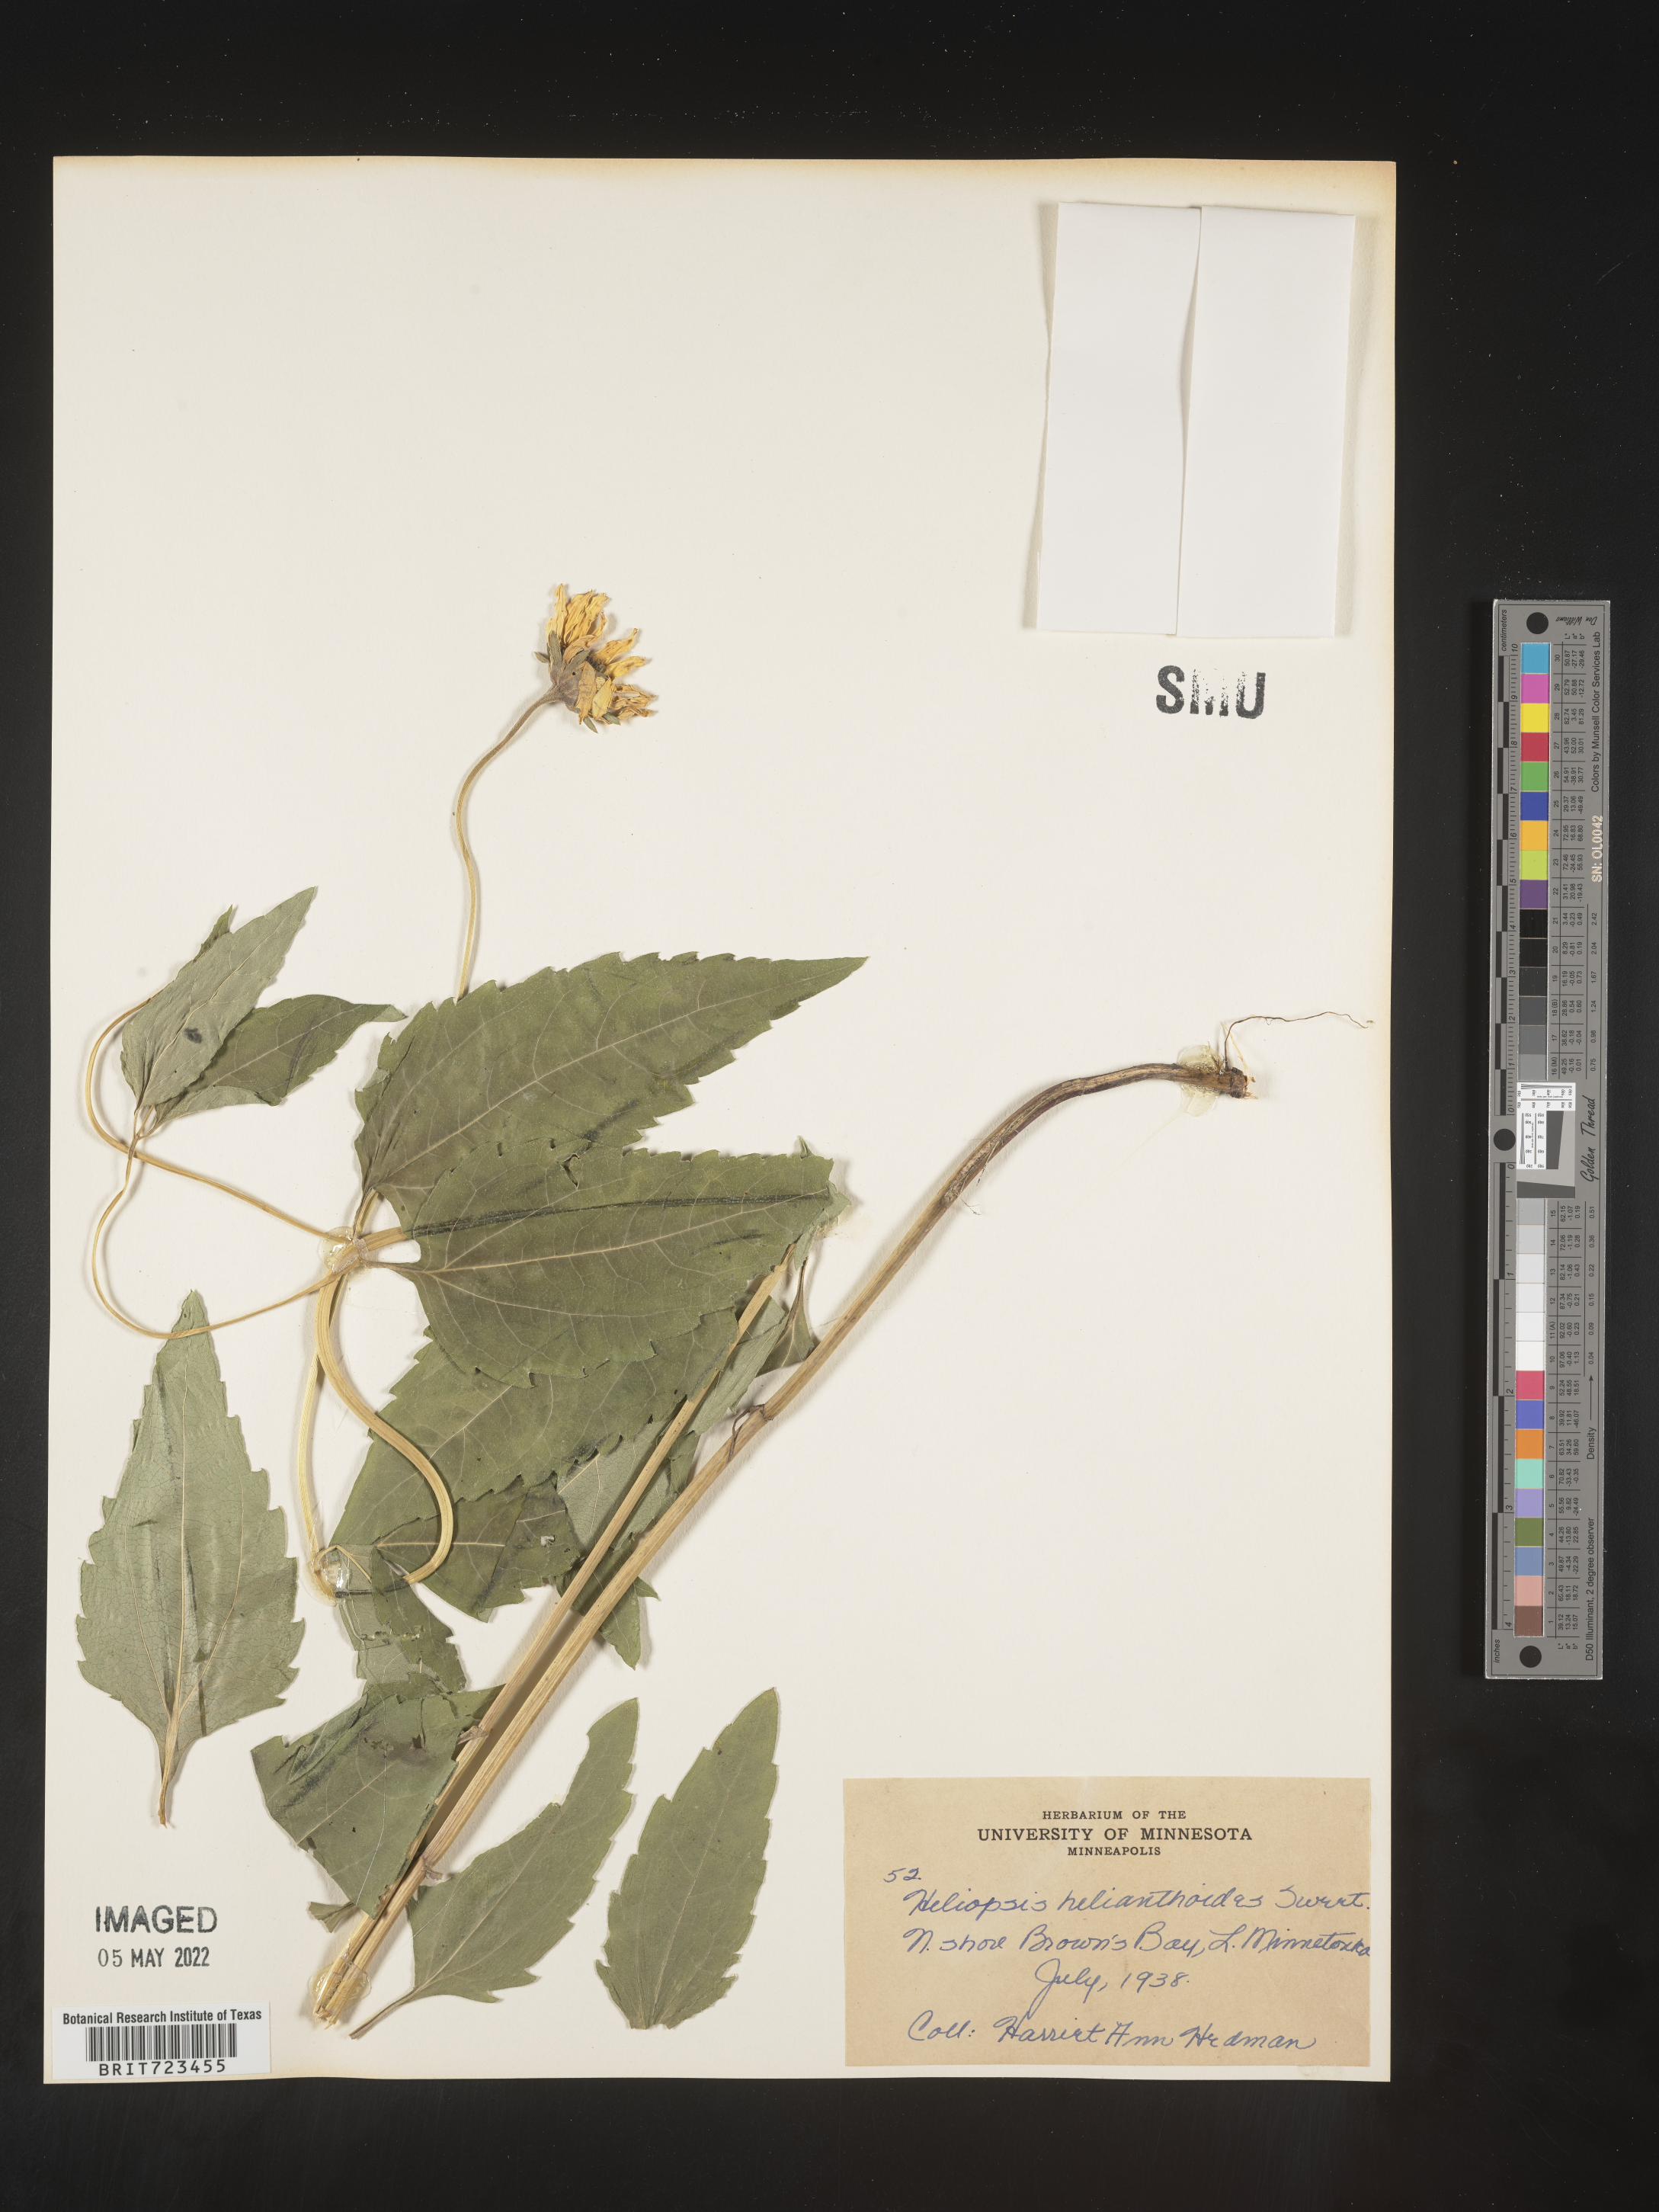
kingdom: Plantae
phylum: Tracheophyta
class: Magnoliopsida
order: Asterales
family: Asteraceae
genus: Heliopsis
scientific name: Heliopsis helianthoides
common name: False sunflower
